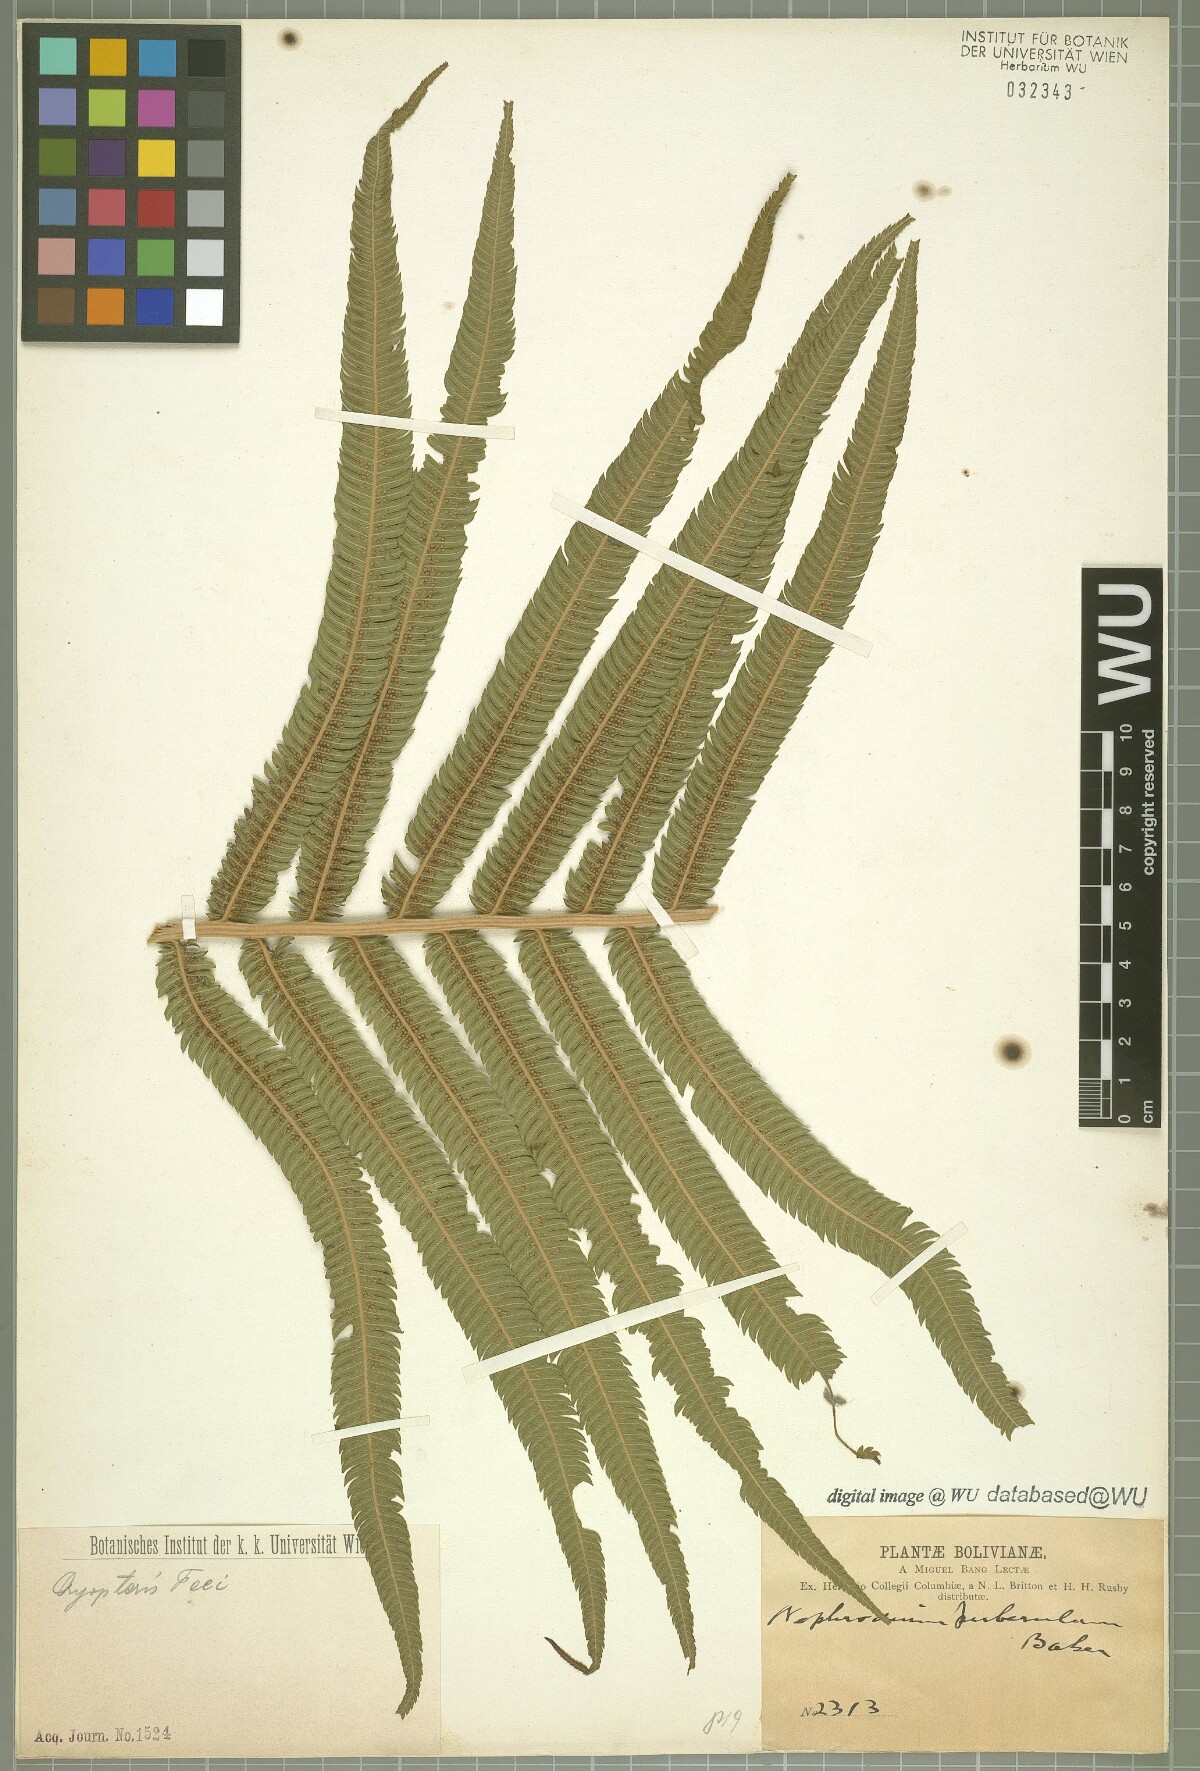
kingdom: Plantae
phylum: Tracheophyta
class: Polypodiopsida
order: Polypodiales
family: Thelypteridaceae
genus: Pelazoneuron
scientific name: Pelazoneuron clivale
